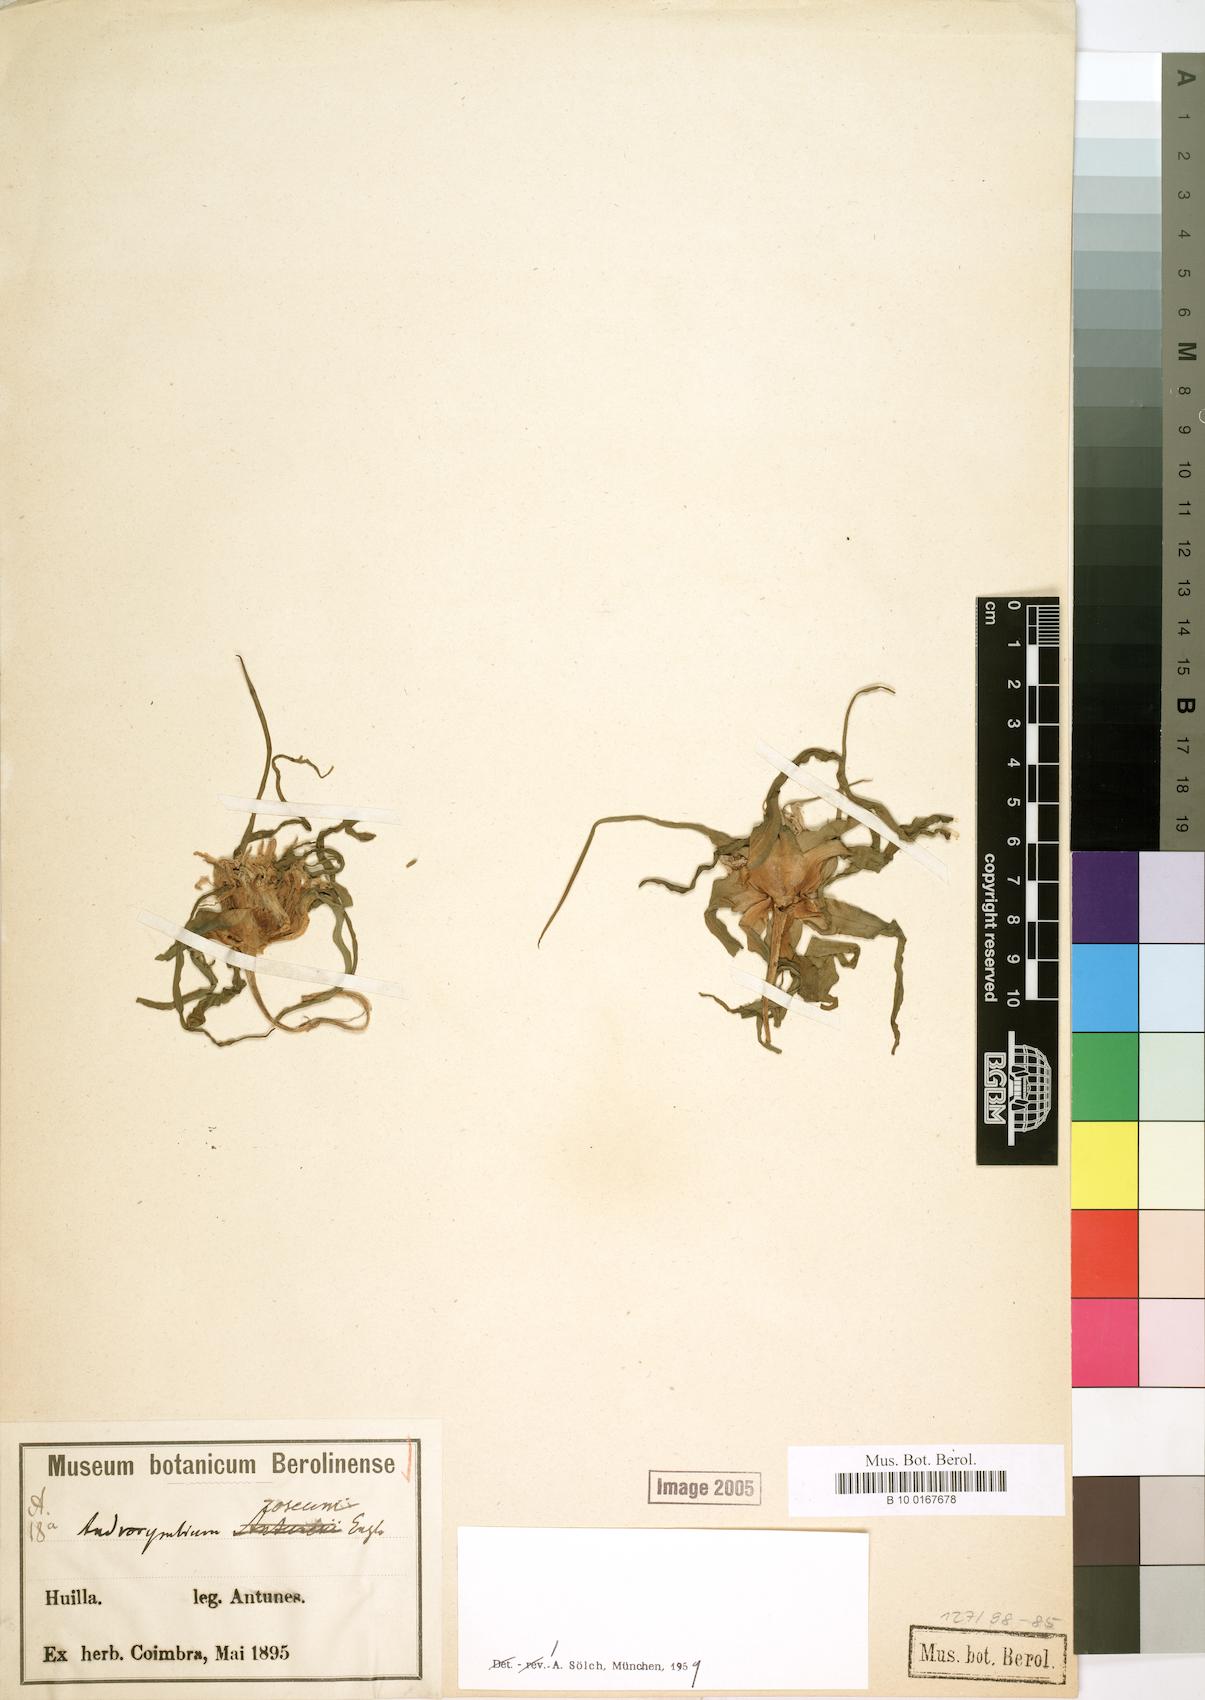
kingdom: Plantae
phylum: Tracheophyta
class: Liliopsida
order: Liliales
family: Colchicaceae
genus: Colchicum
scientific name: Colchicum roseum
